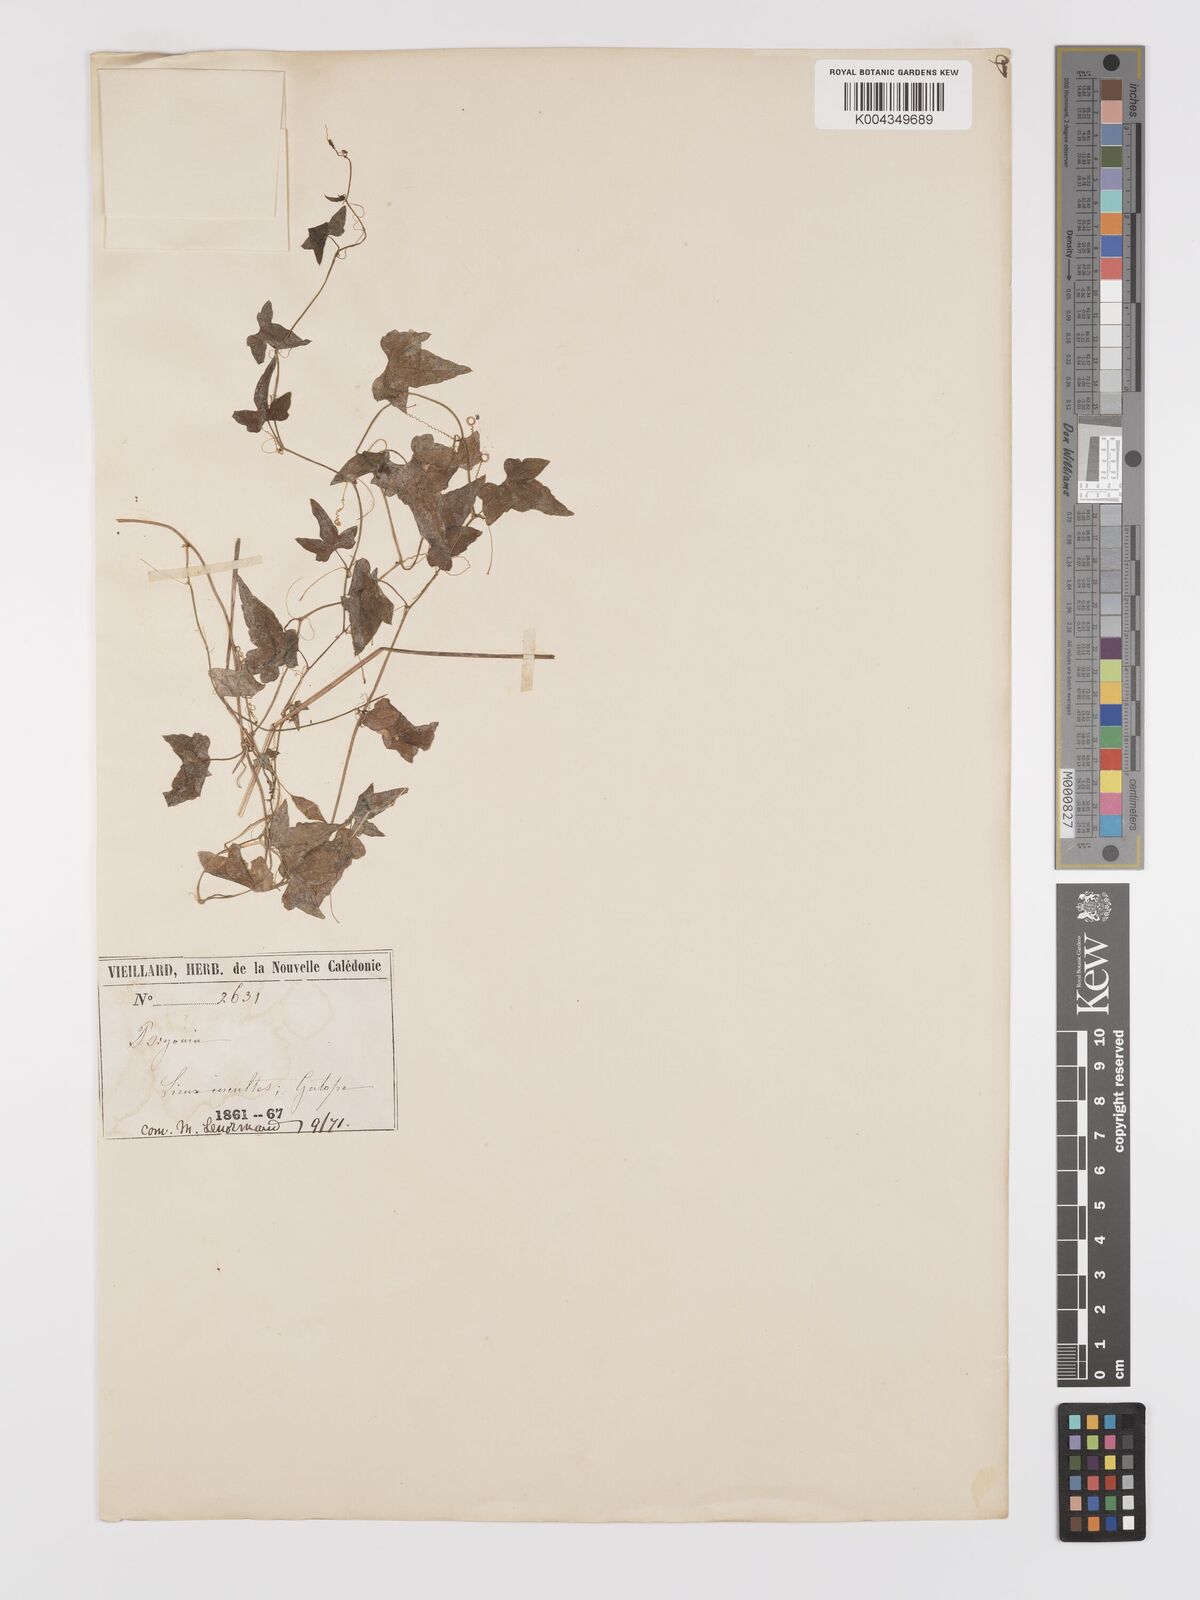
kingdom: Plantae
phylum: Tracheophyta
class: Magnoliopsida
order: Cucurbitales
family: Cucurbitaceae
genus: Zehneria
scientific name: Zehneria pentaphylla
